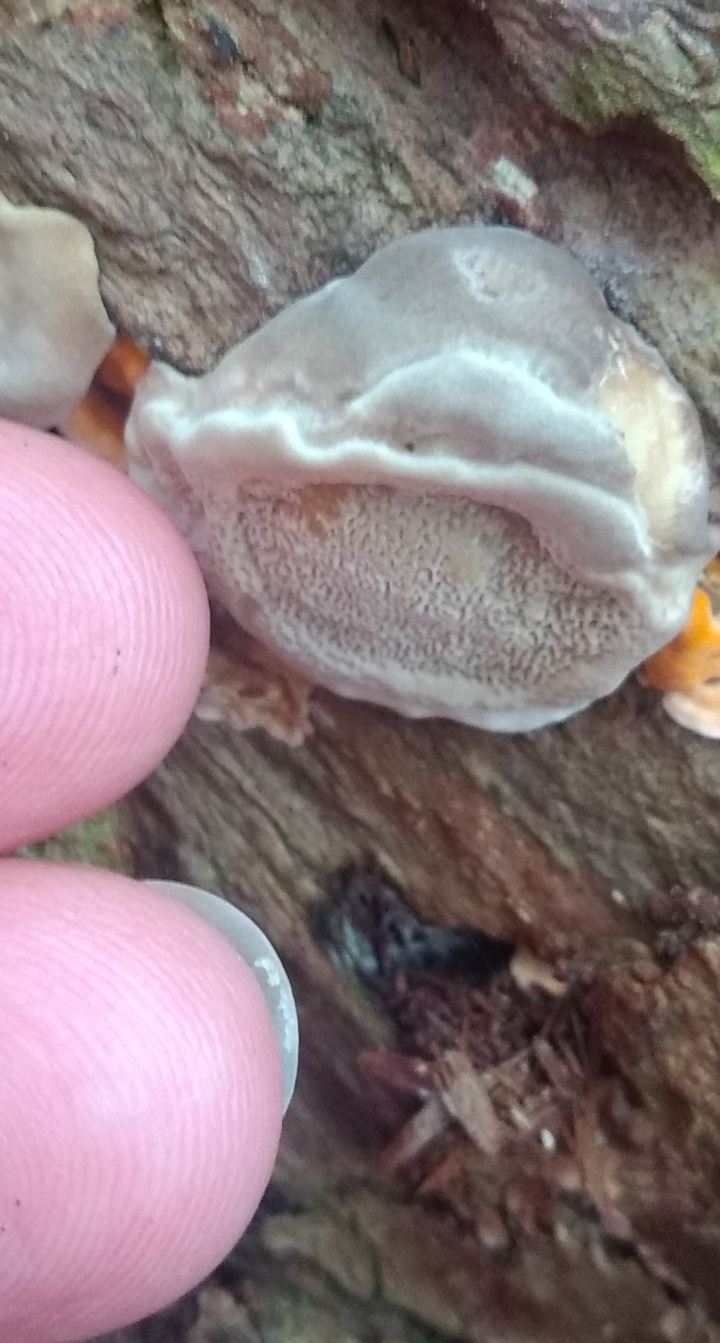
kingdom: Fungi
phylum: Basidiomycota
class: Agaricomycetes
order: Polyporales
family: Polyporaceae
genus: Trametes
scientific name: Trametes
